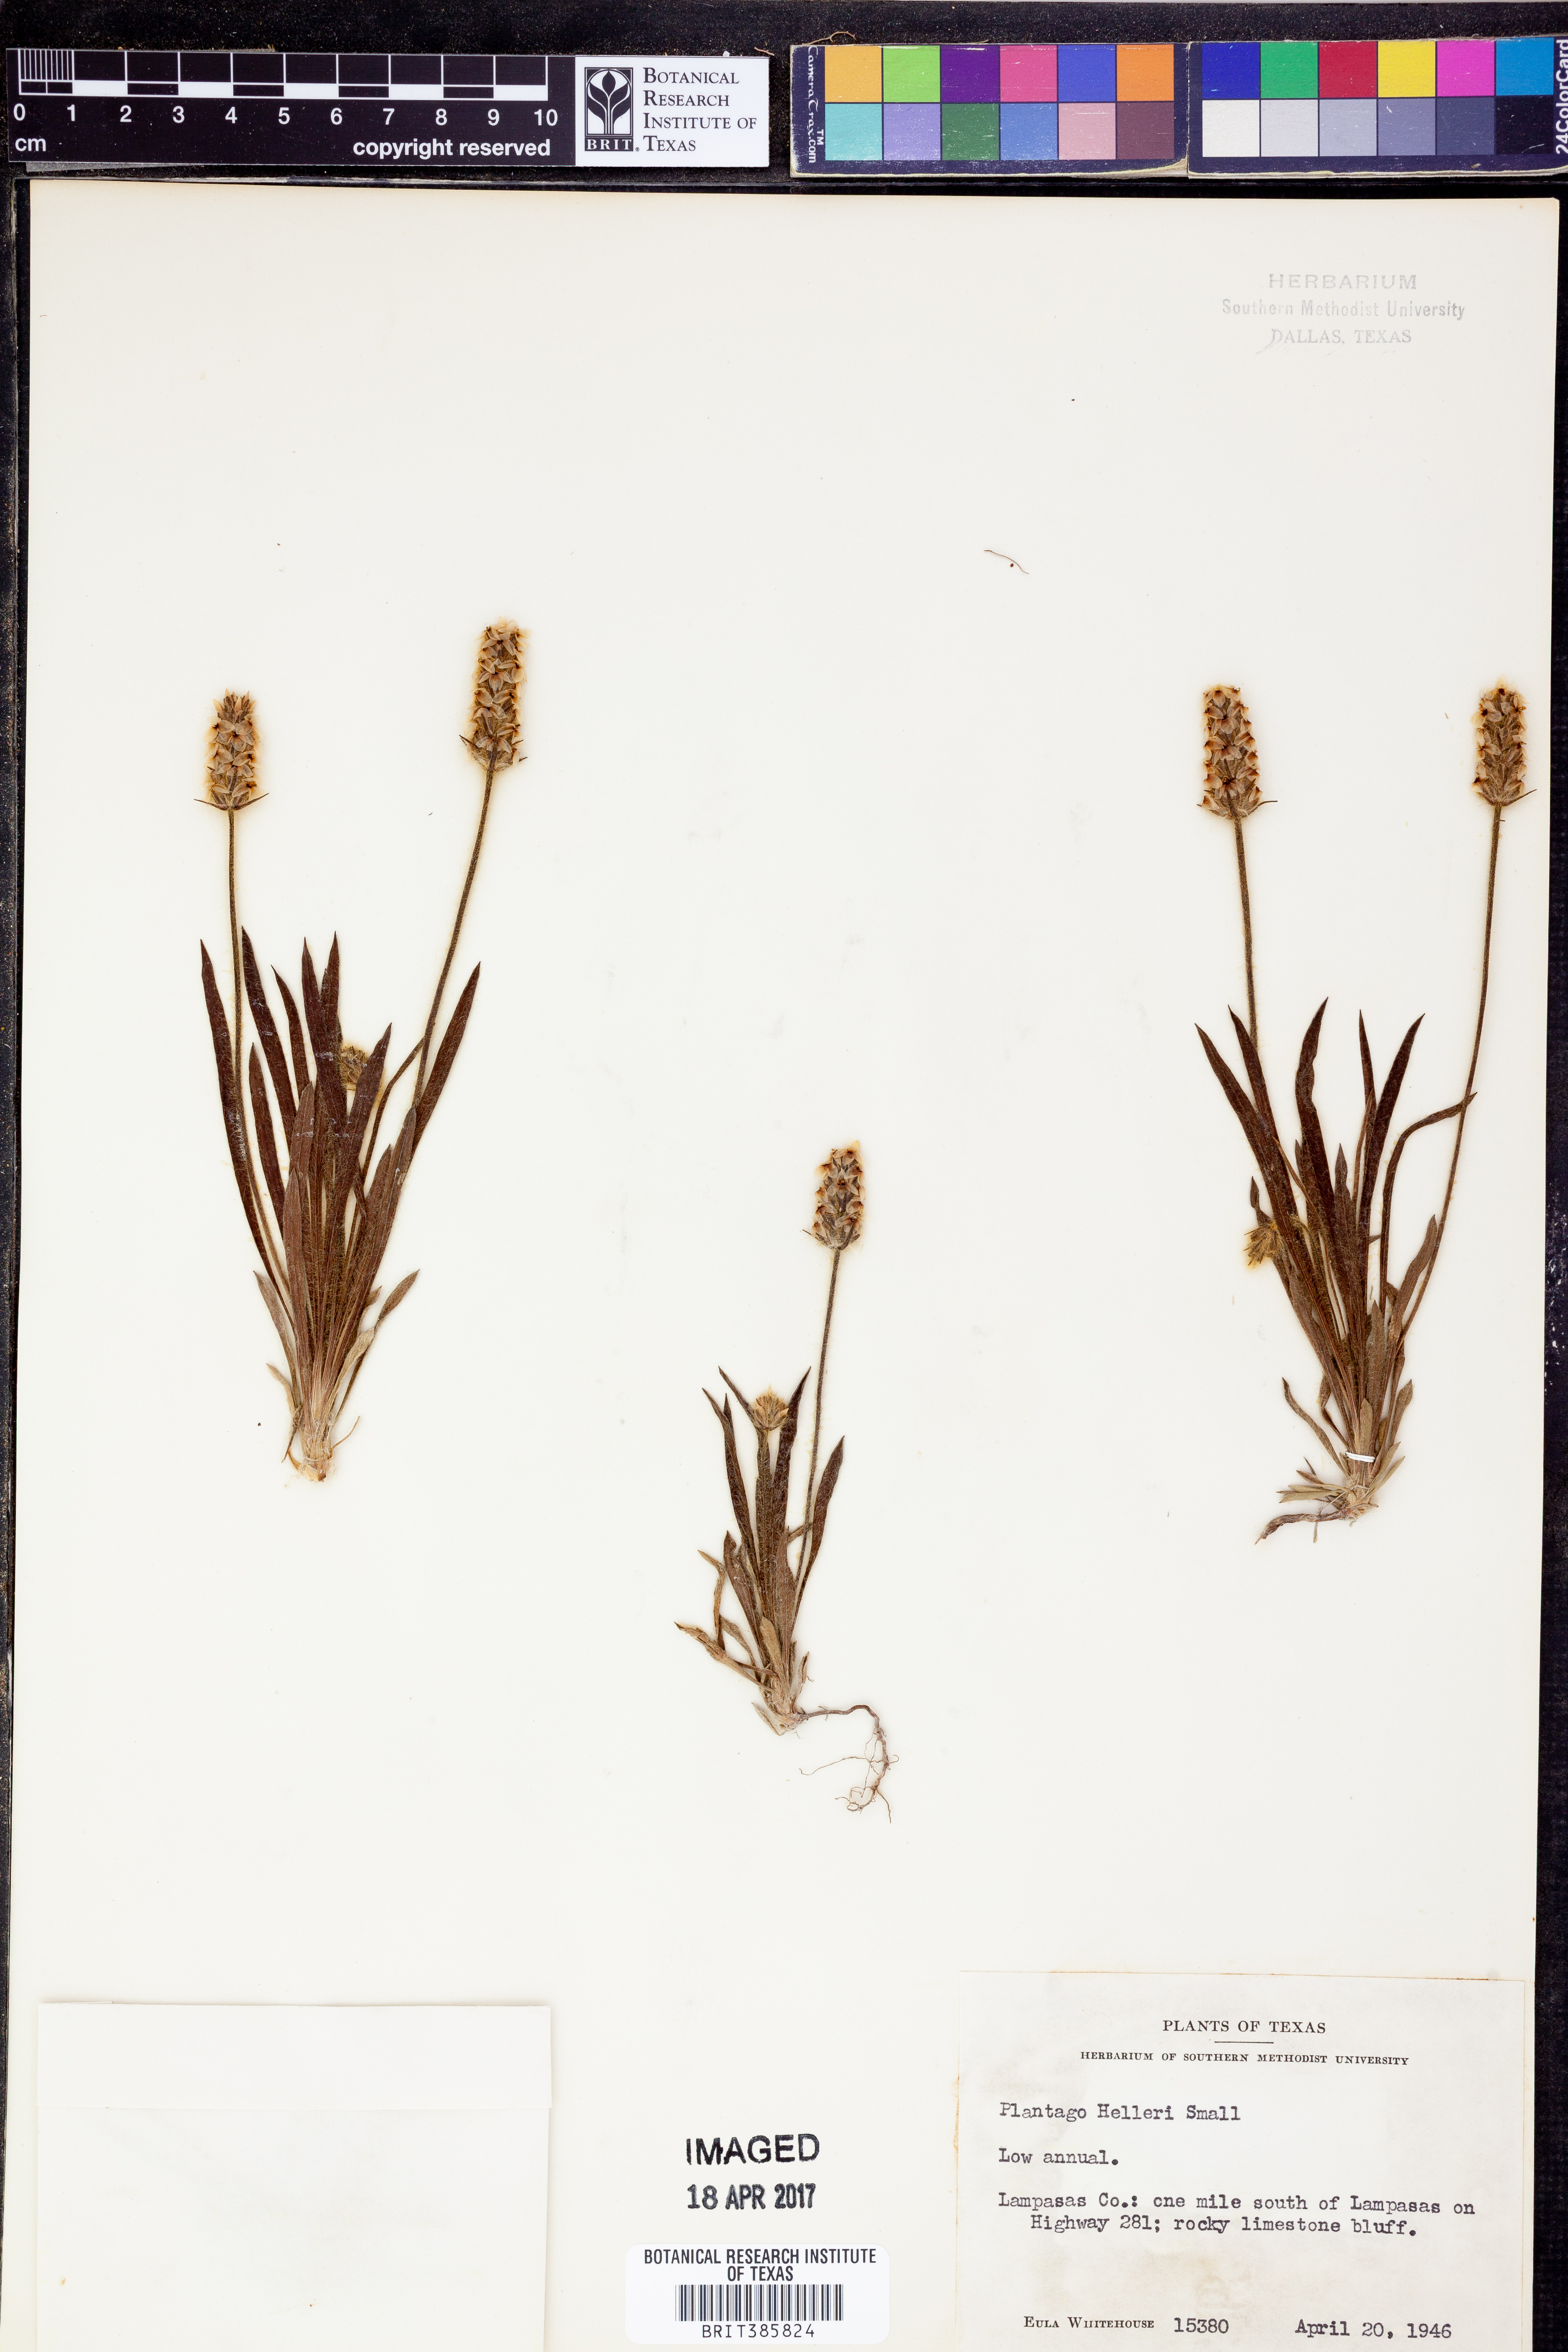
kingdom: Plantae
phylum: Tracheophyta
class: Magnoliopsida
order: Lamiales
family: Plantaginaceae
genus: Plantago
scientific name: Plantago helleri
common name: Heller's plantain
